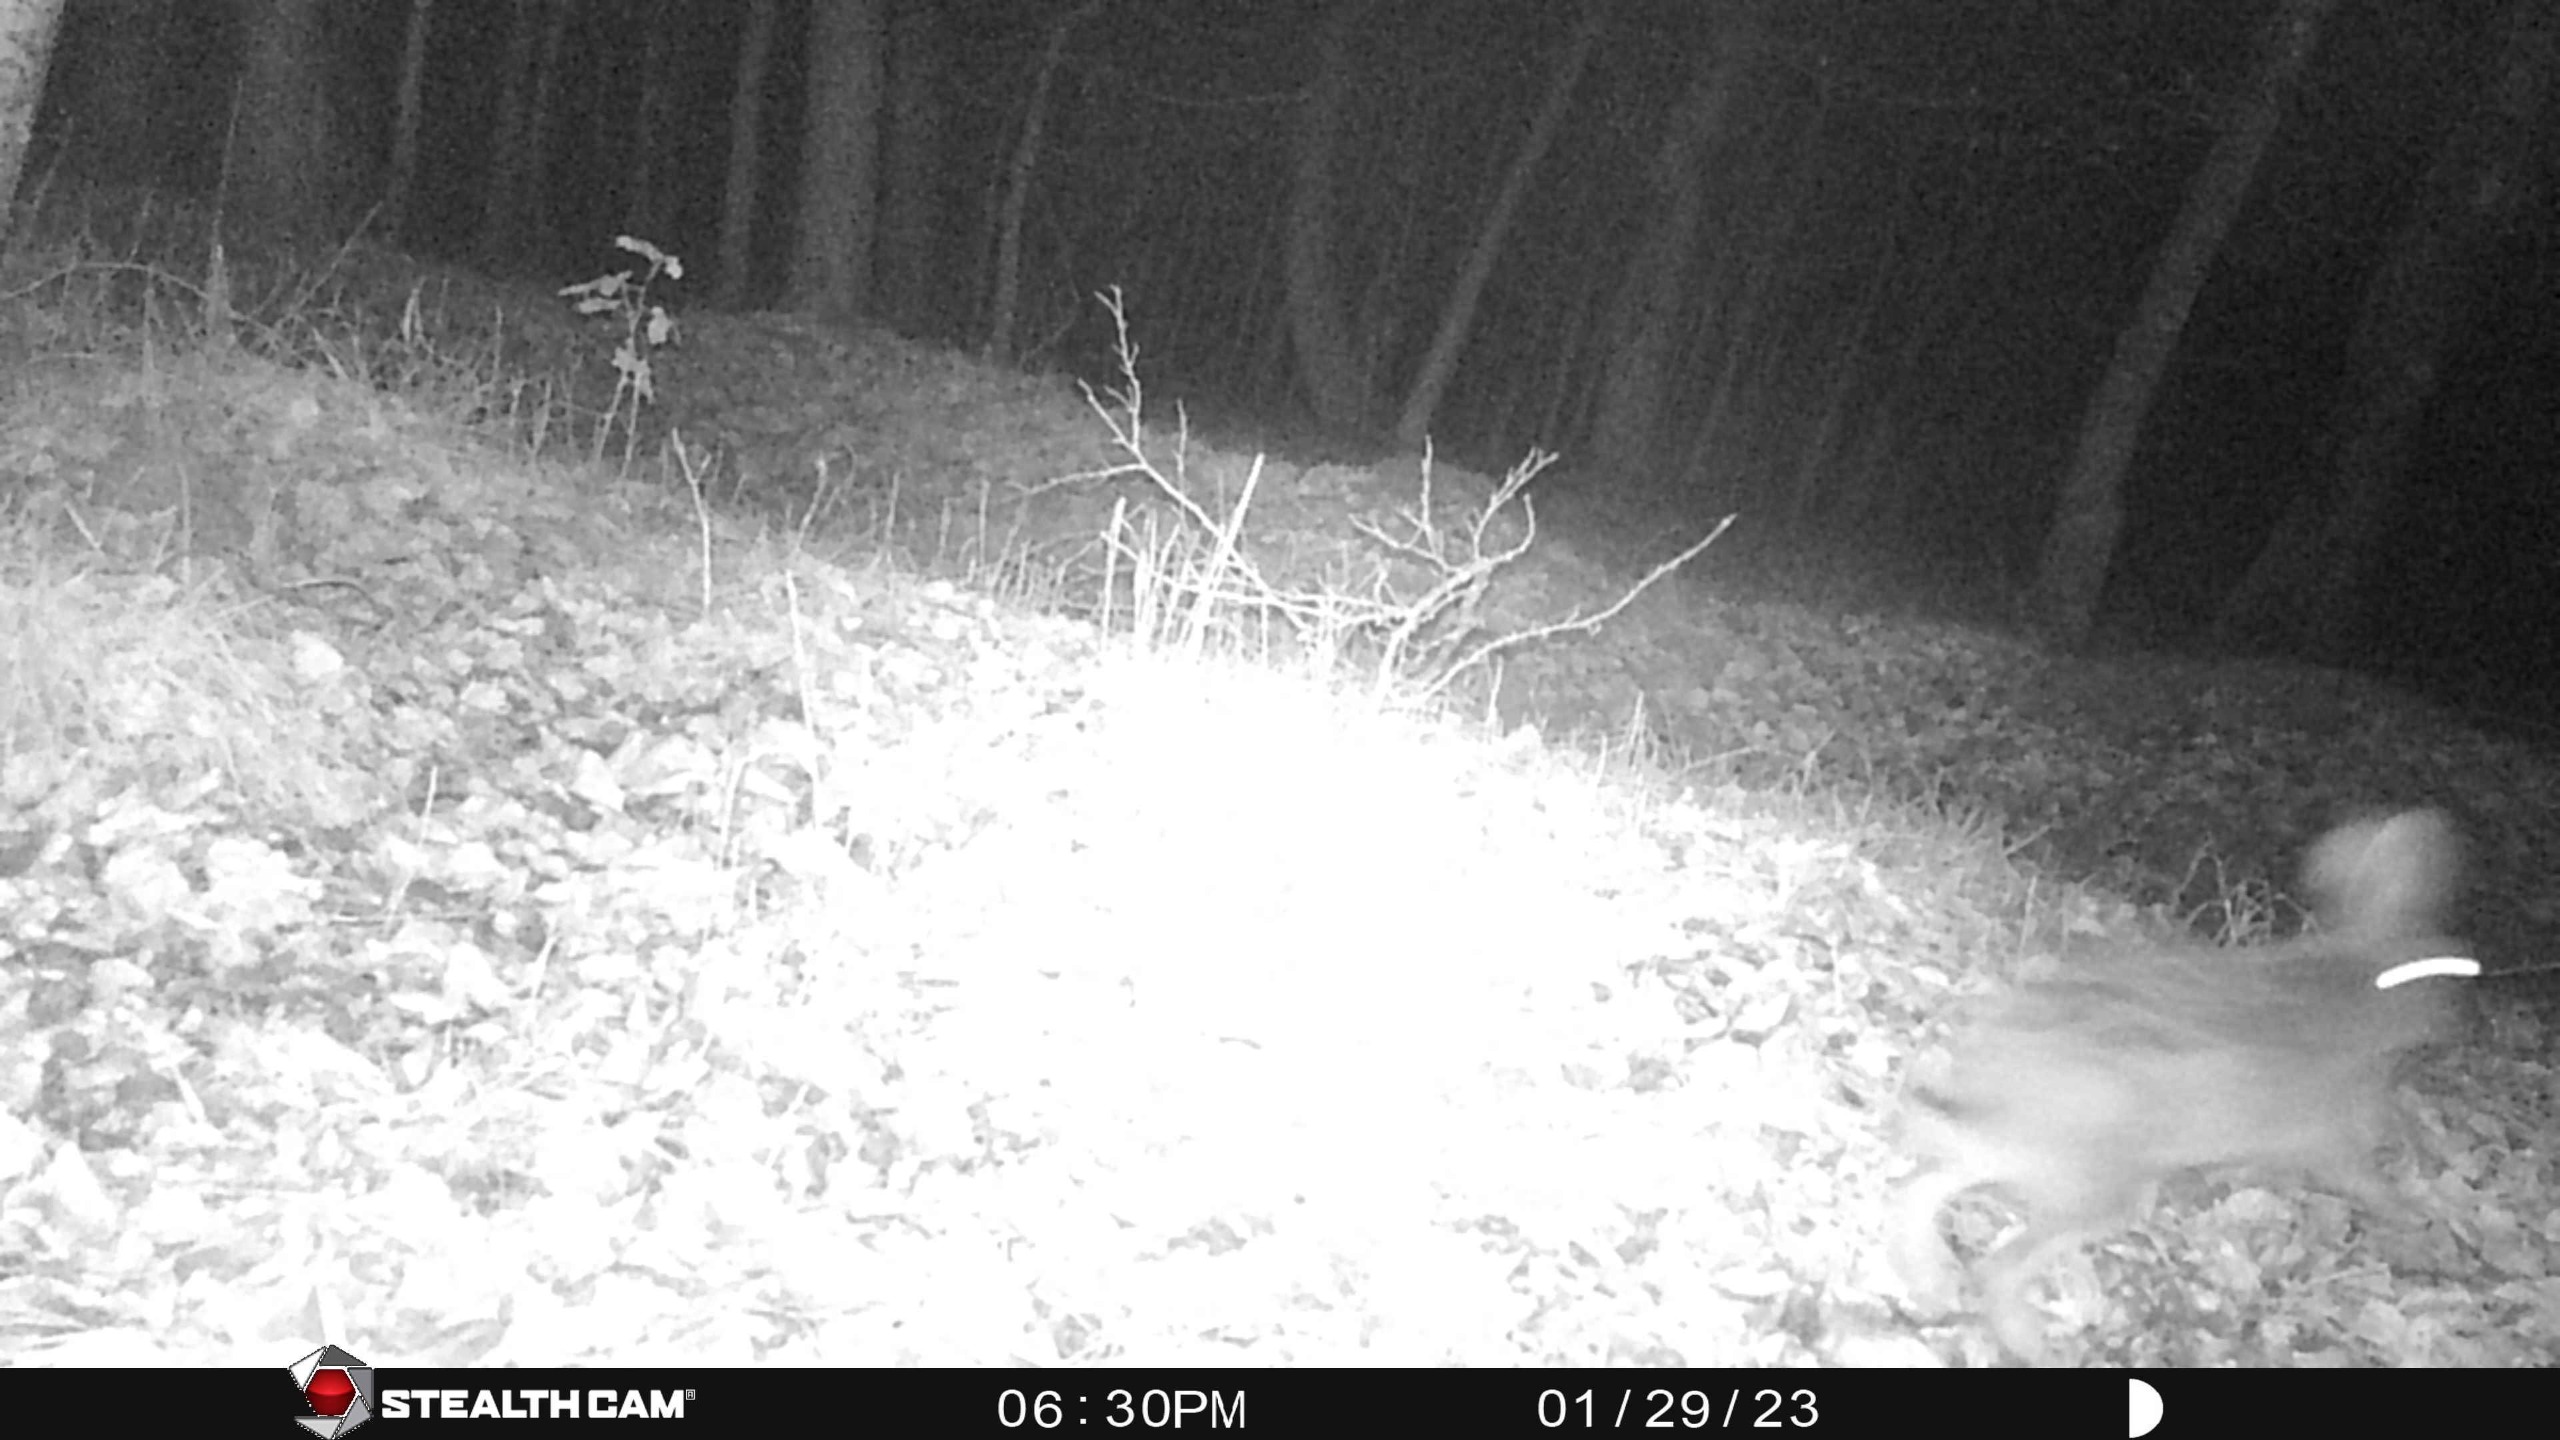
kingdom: Animalia
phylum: Chordata
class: Mammalia
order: Lagomorpha
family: Leporidae
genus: Lepus
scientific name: Lepus europaeus
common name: Hare
